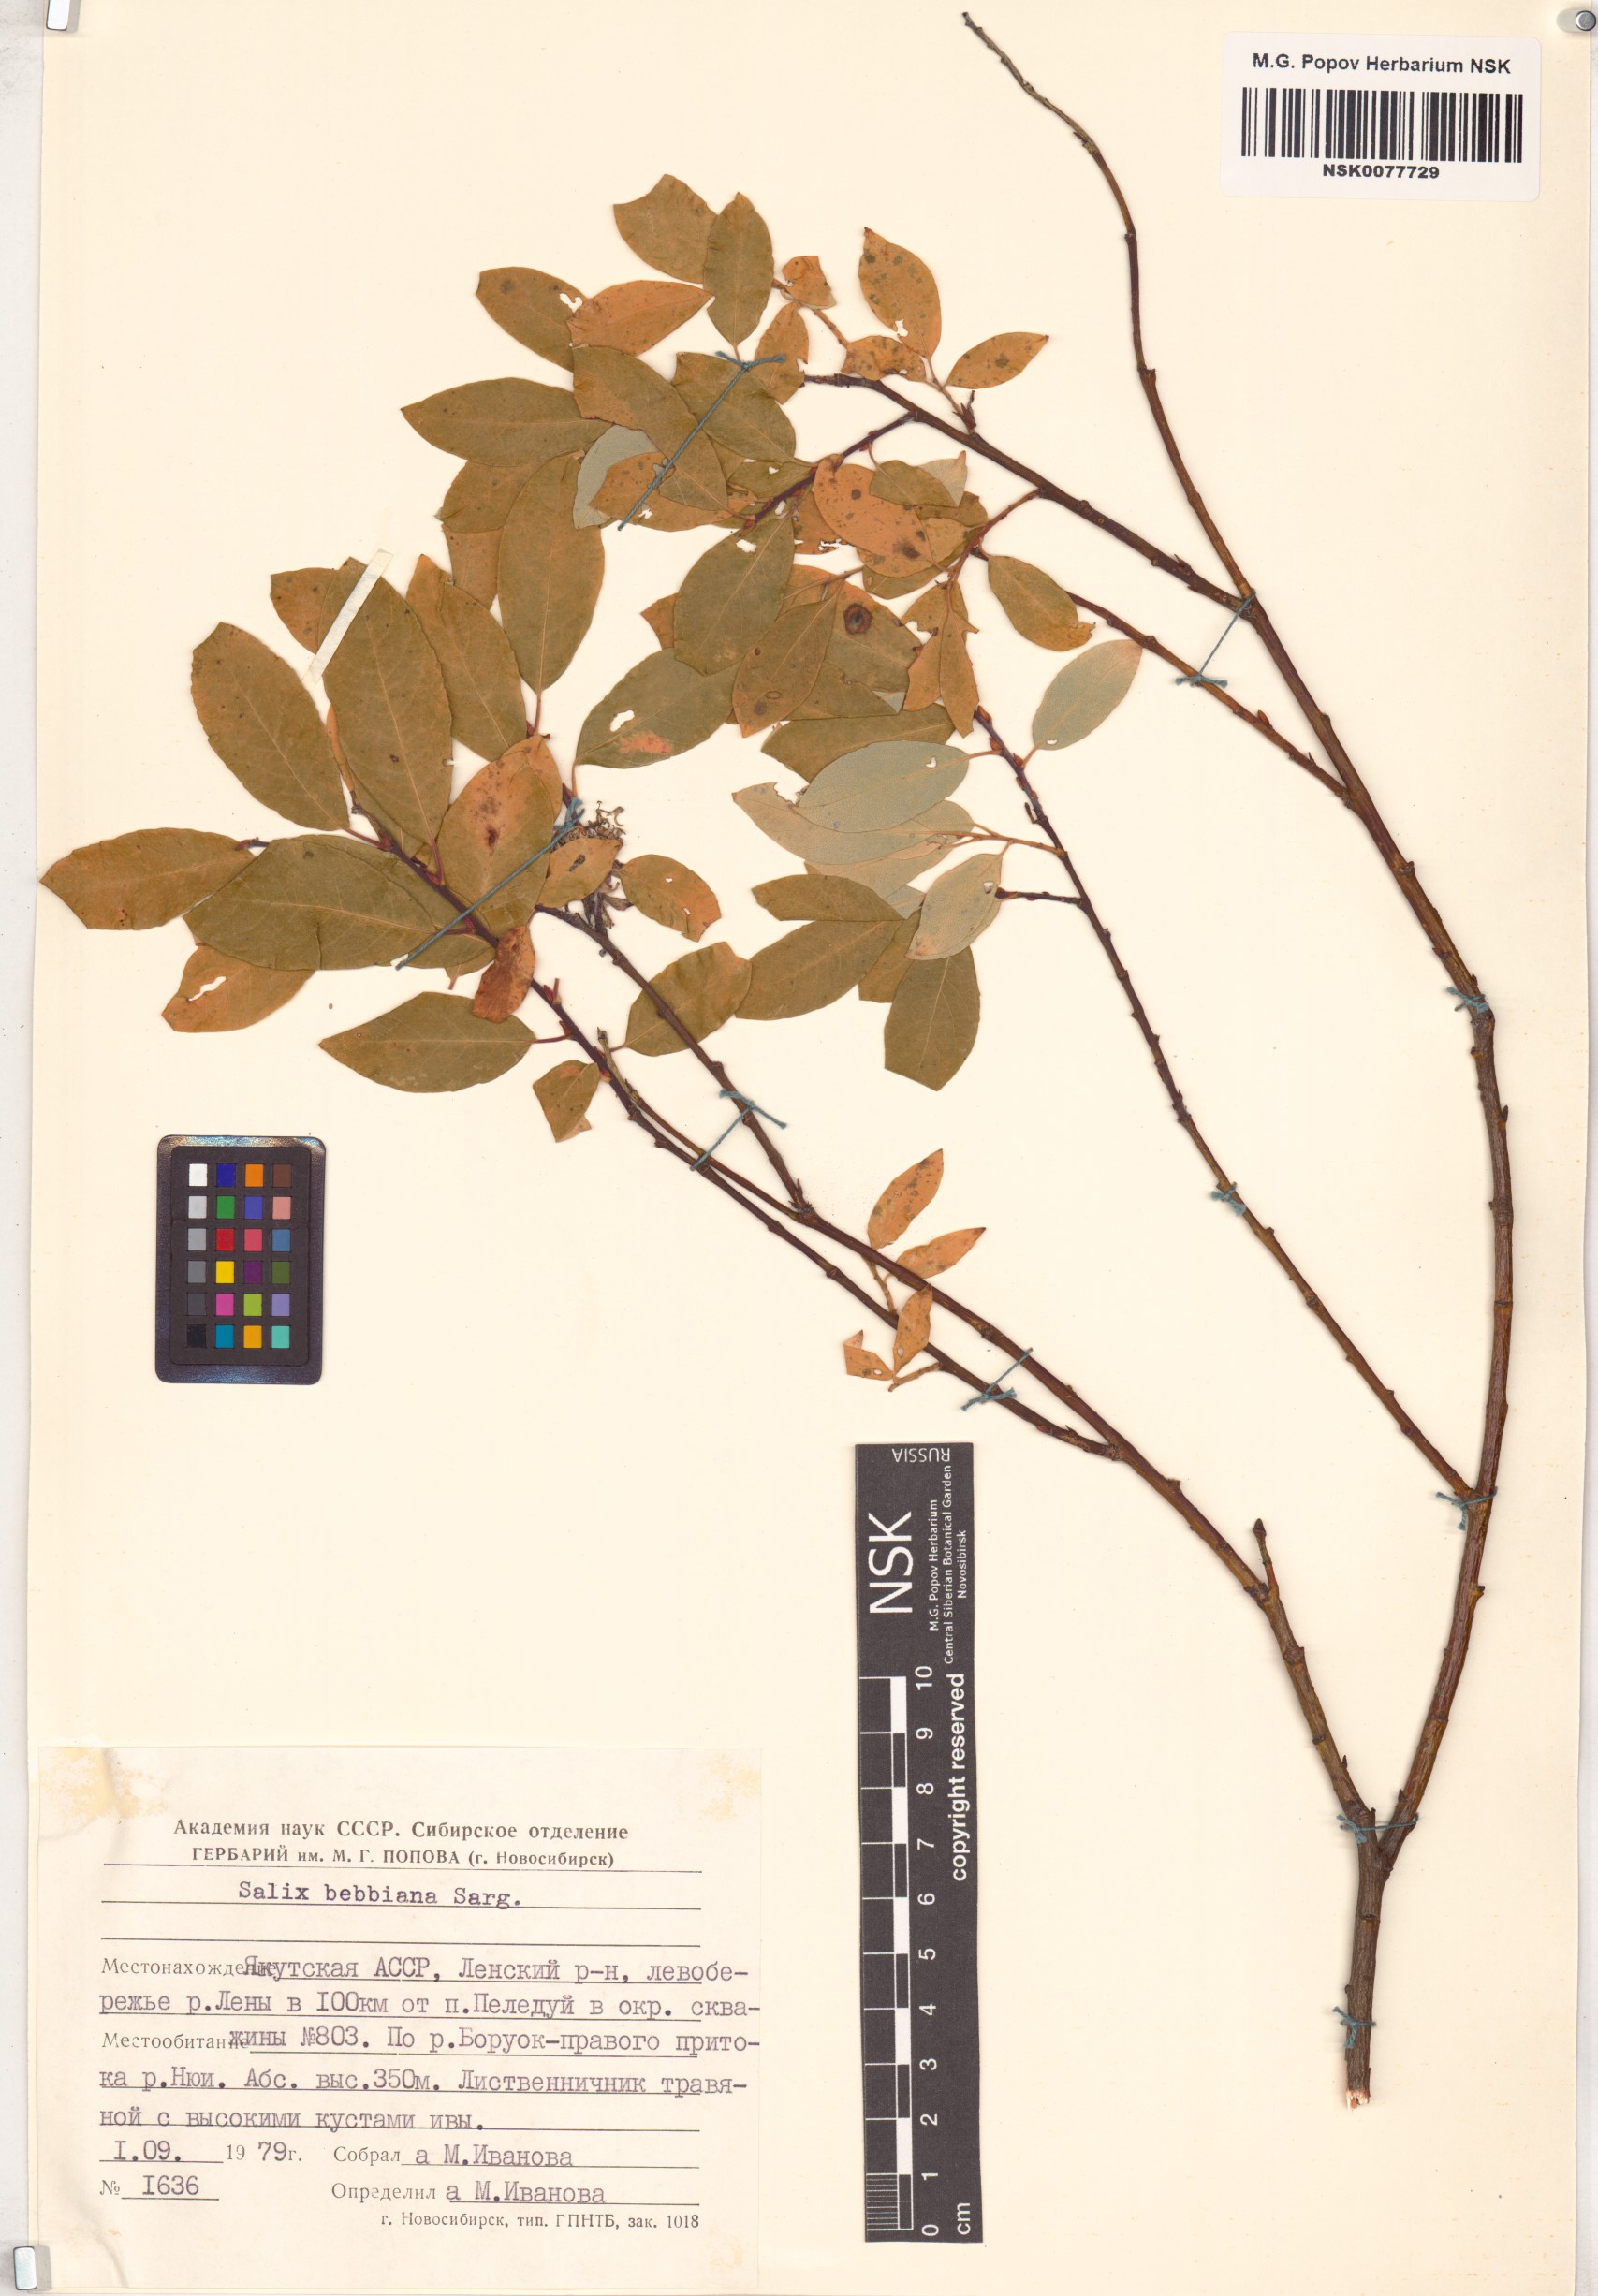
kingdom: Plantae
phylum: Tracheophyta
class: Magnoliopsida
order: Malpighiales
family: Salicaceae
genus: Salix
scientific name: Salix bebbiana
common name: Bebb's willow
